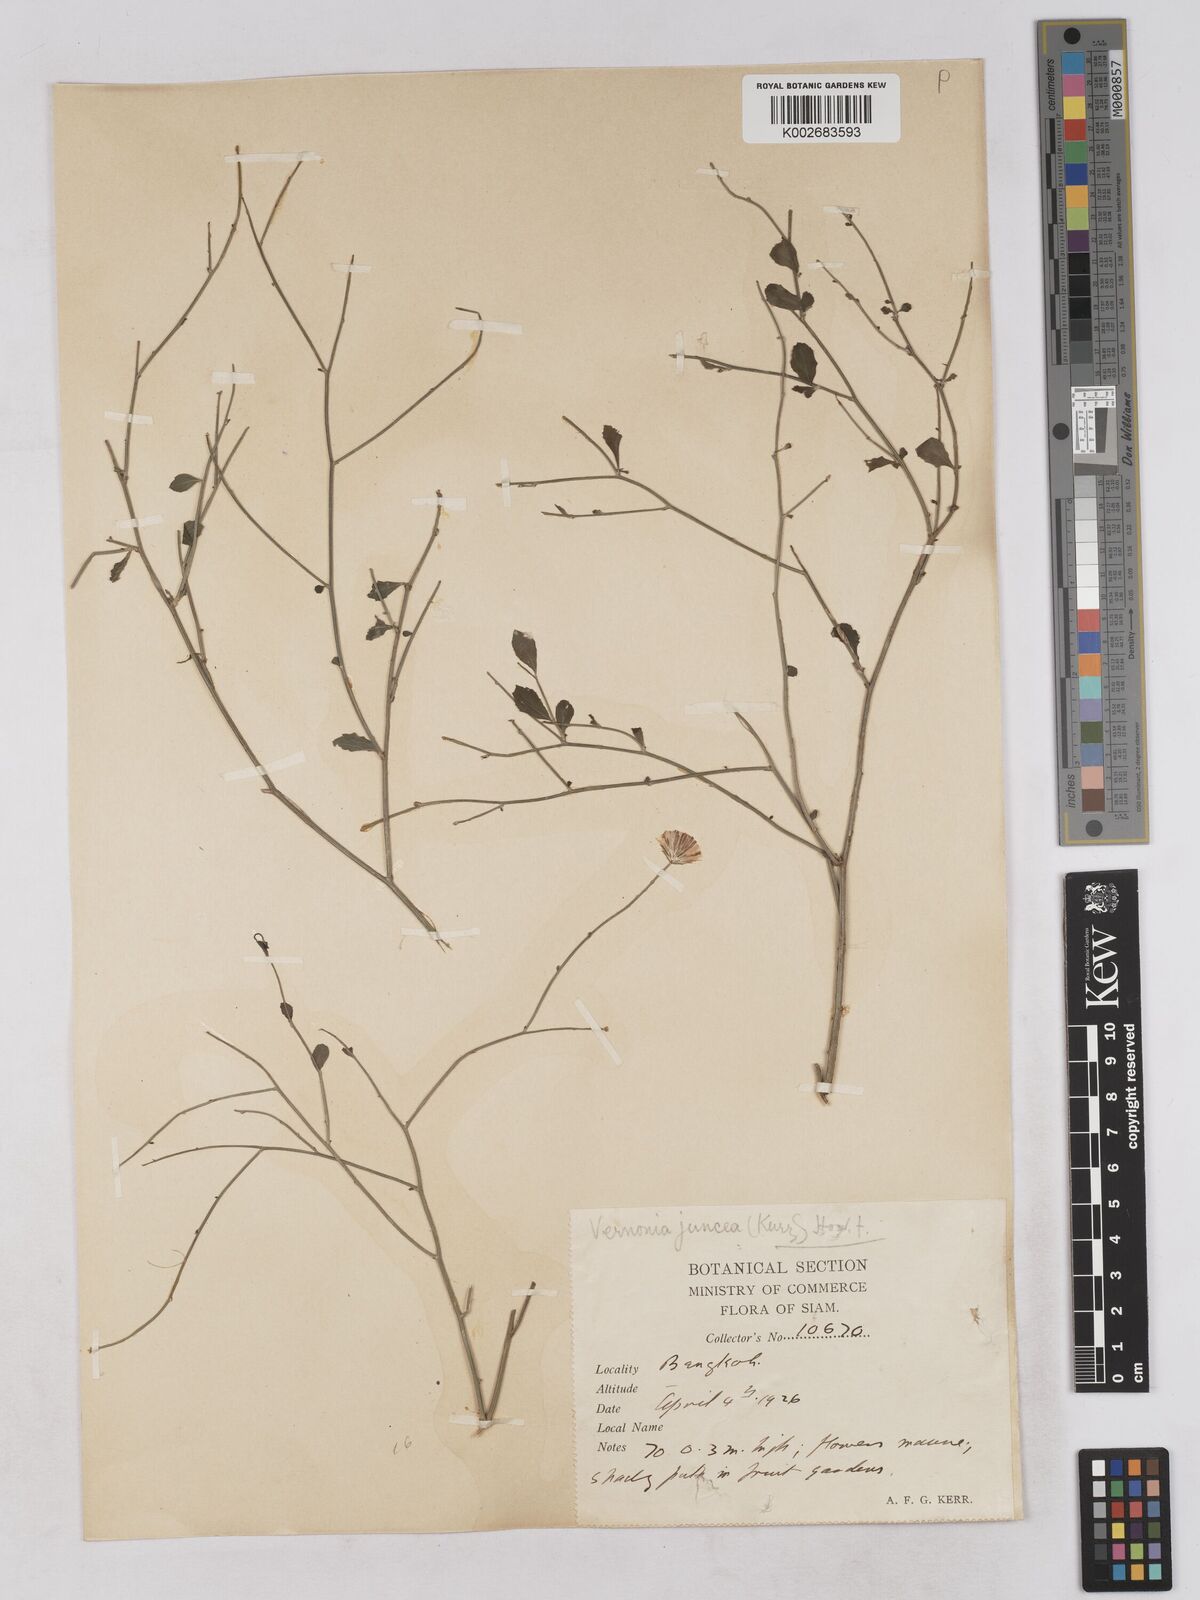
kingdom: Plantae
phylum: Tracheophyta
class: Magnoliopsida
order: Asterales
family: Asteraceae
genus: Vernonia
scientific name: Vernonia
